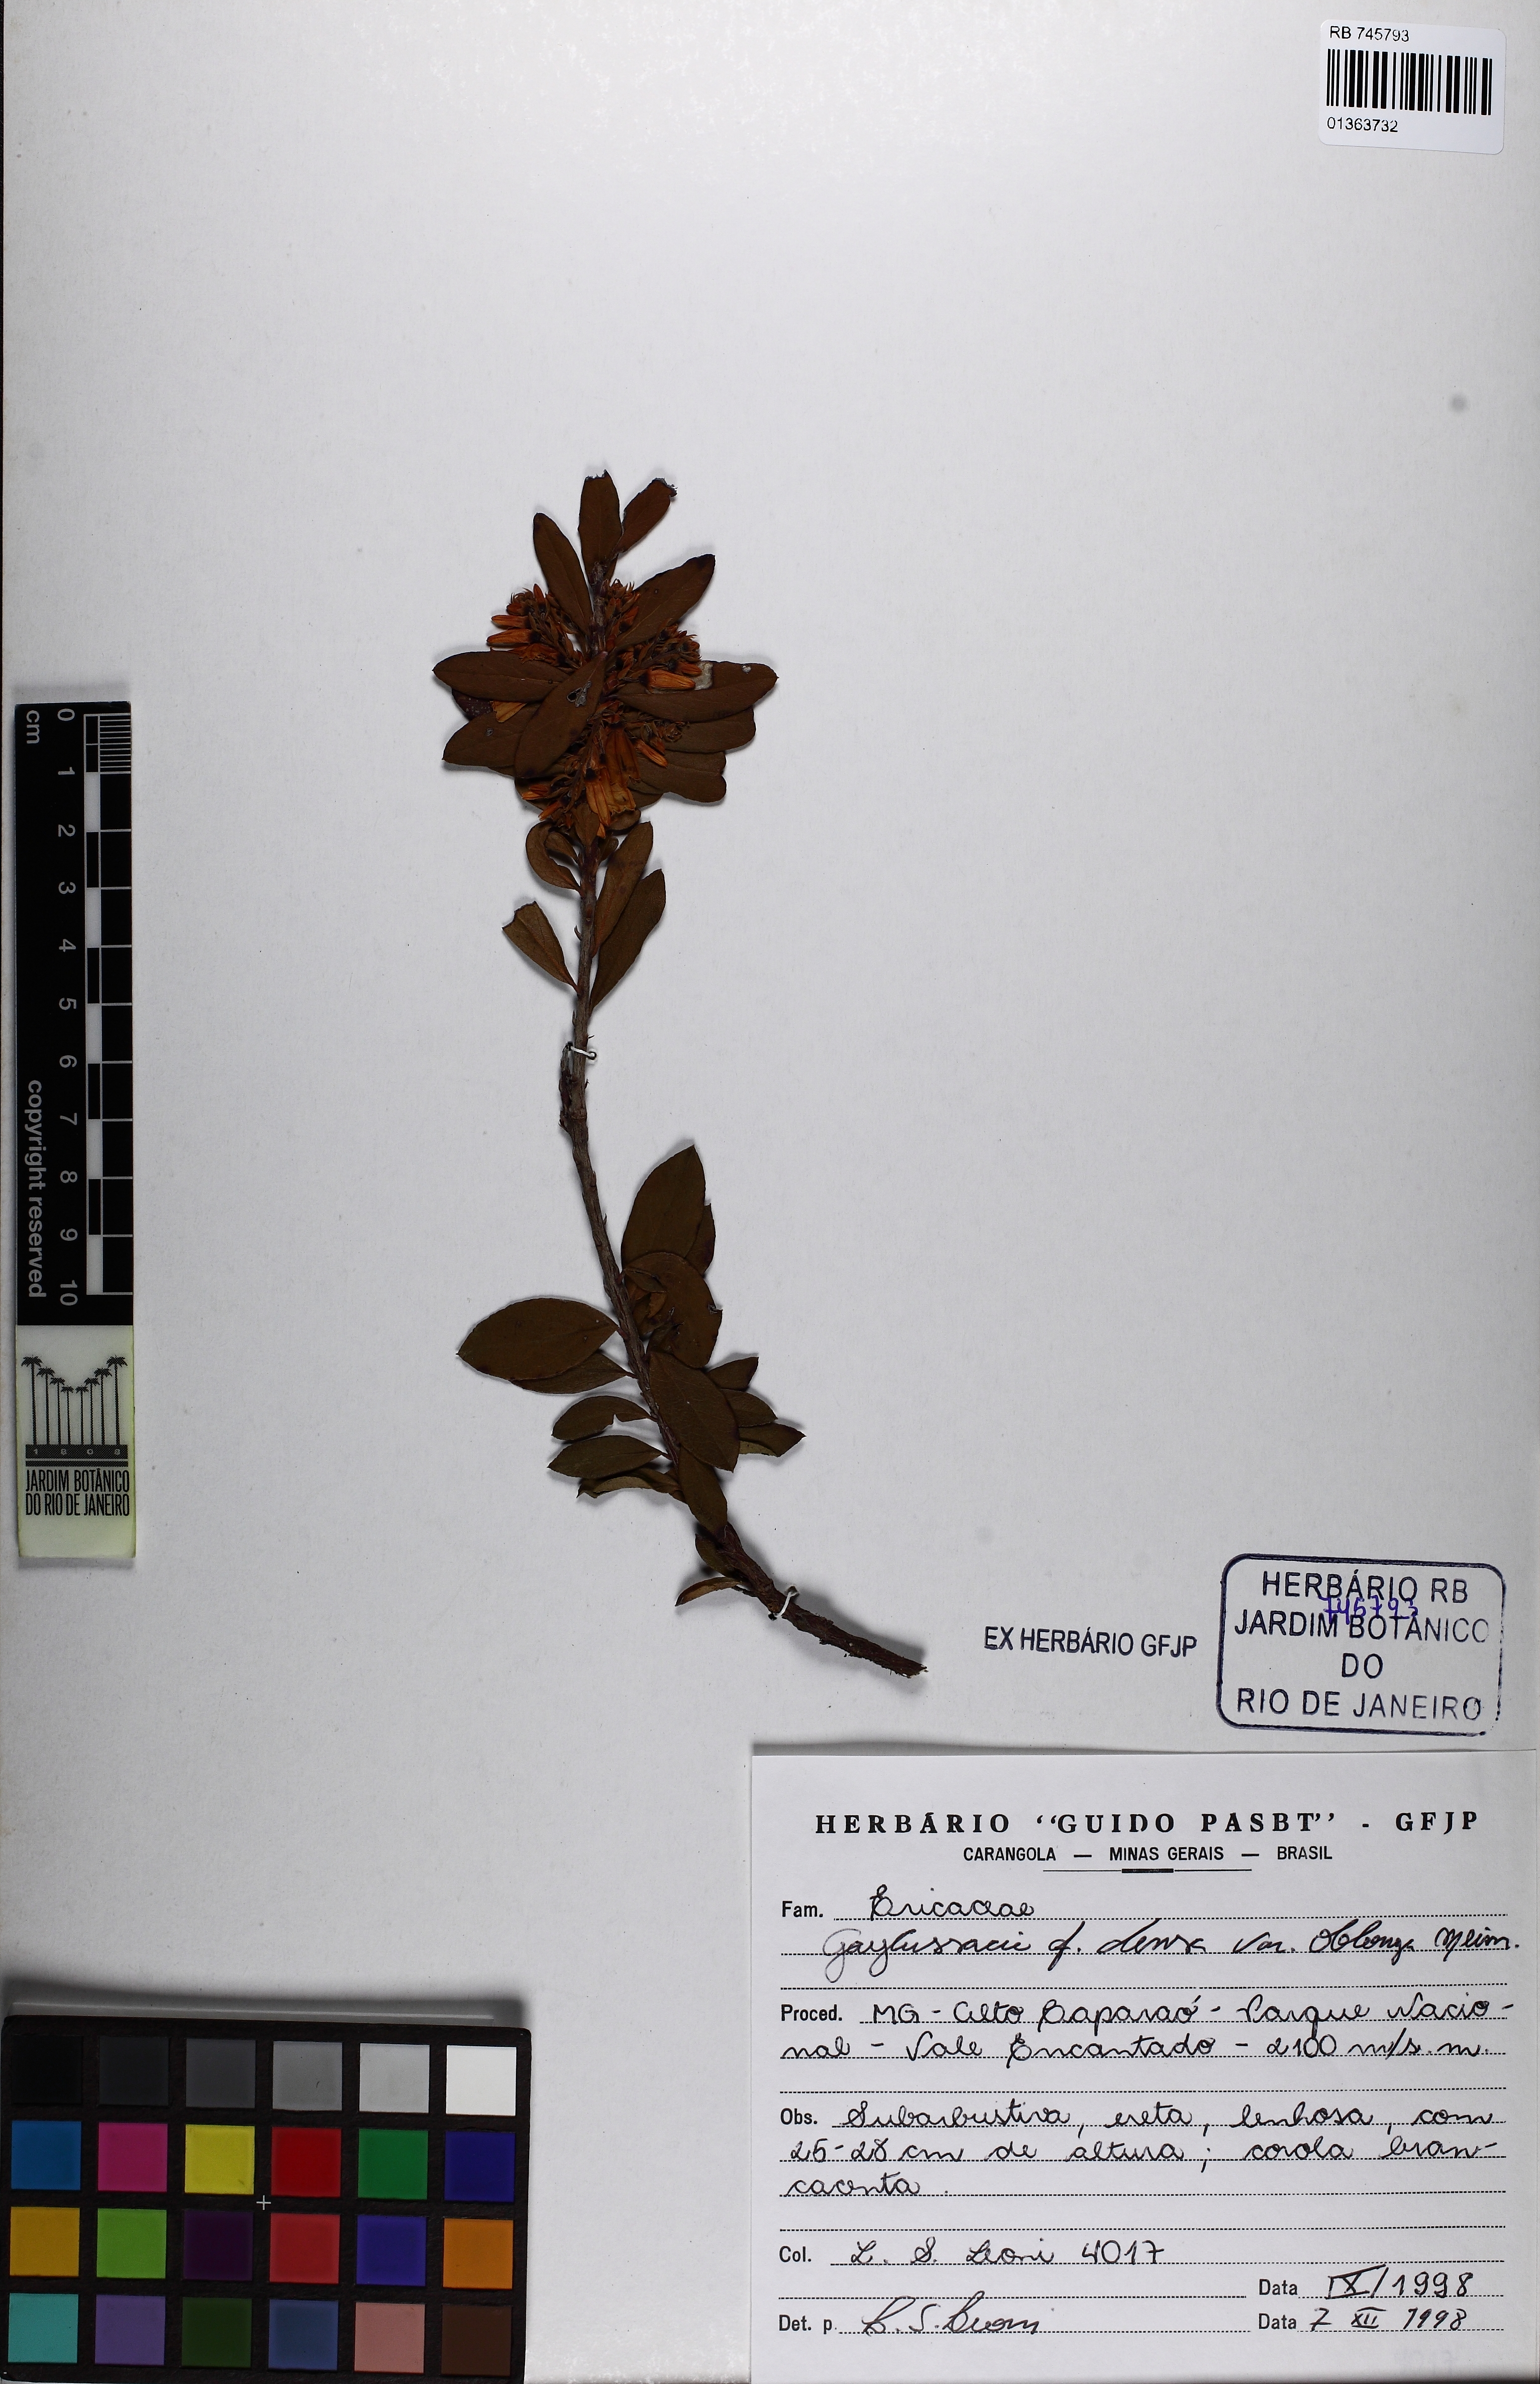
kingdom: Plantae
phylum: Tracheophyta
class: Magnoliopsida
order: Ericales
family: Ericaceae
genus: Gaylussacia
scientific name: Gaylussacia densa
